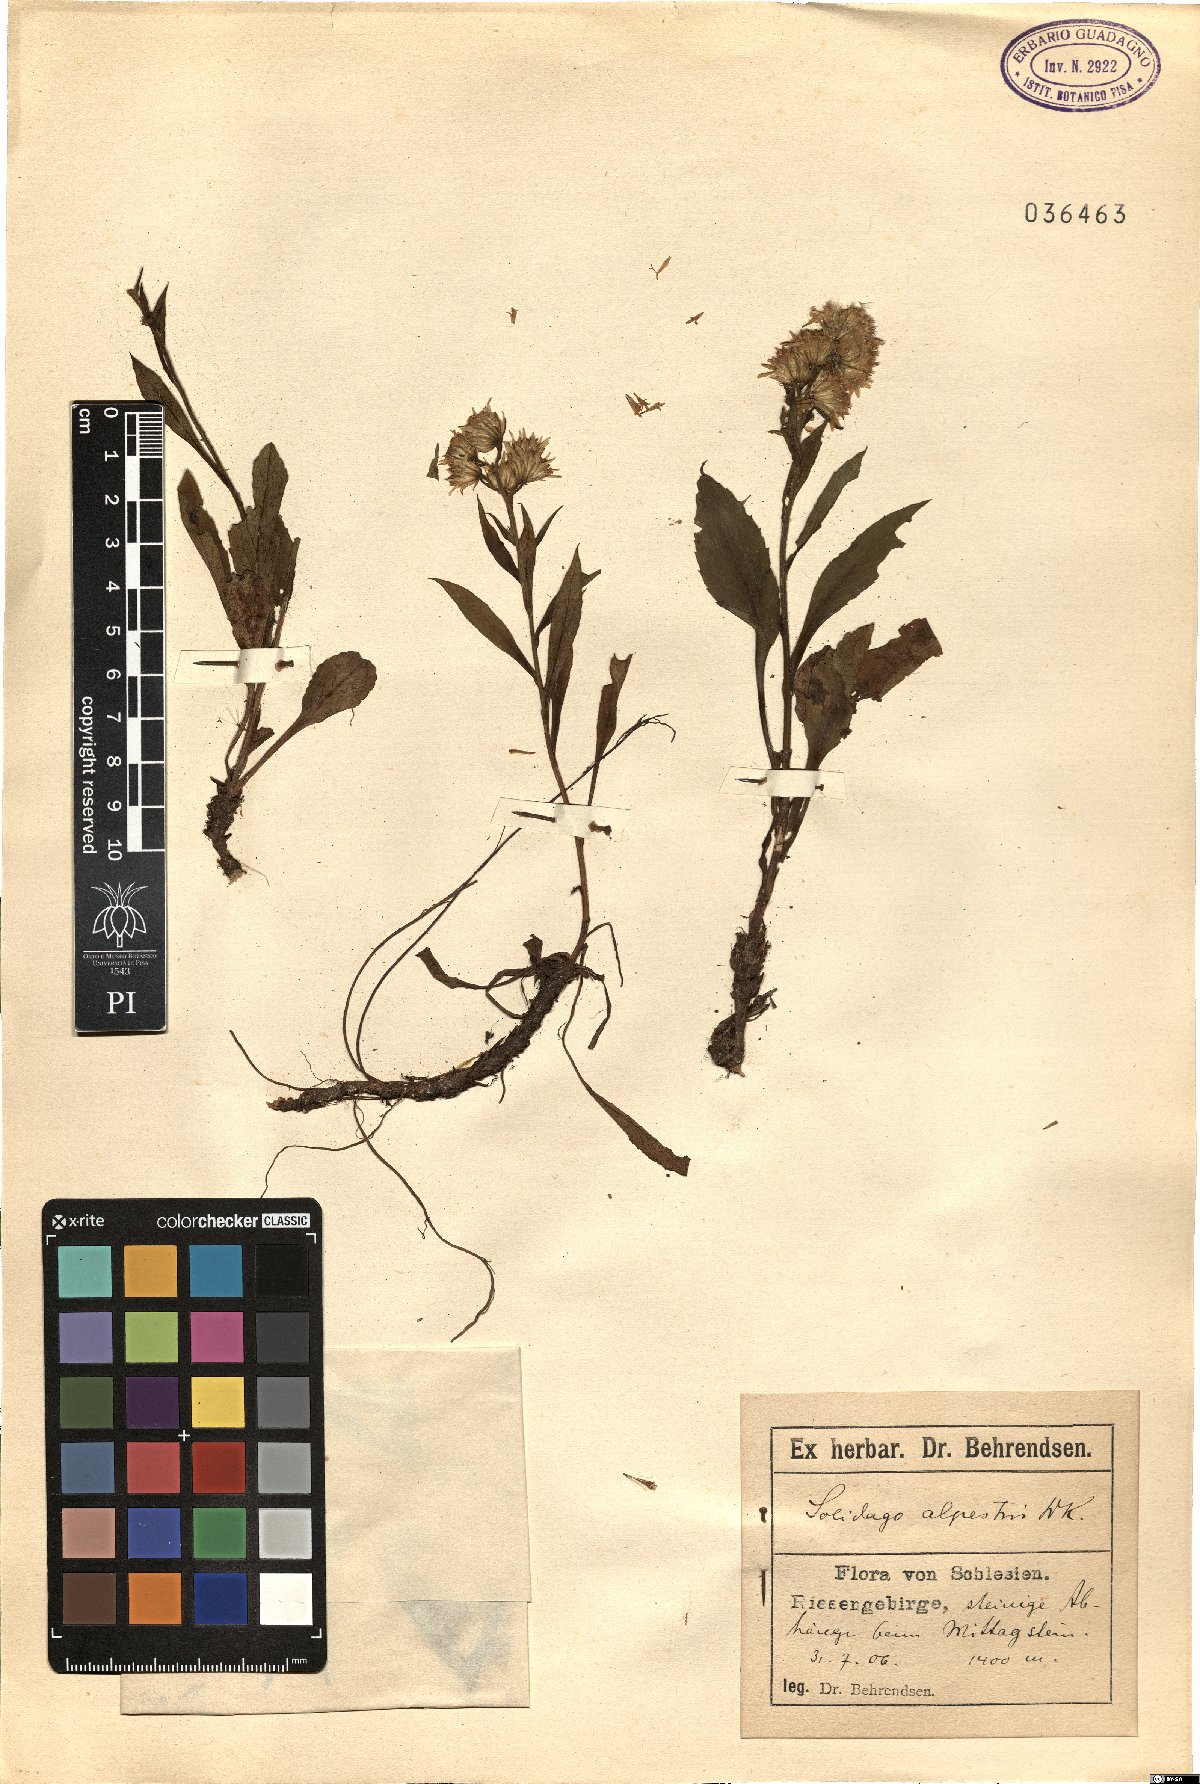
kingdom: Plantae
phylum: Tracheophyta
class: Magnoliopsida
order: Asterales
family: Asteraceae
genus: Solidago
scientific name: Solidago virgaurea
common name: Goldenrod
